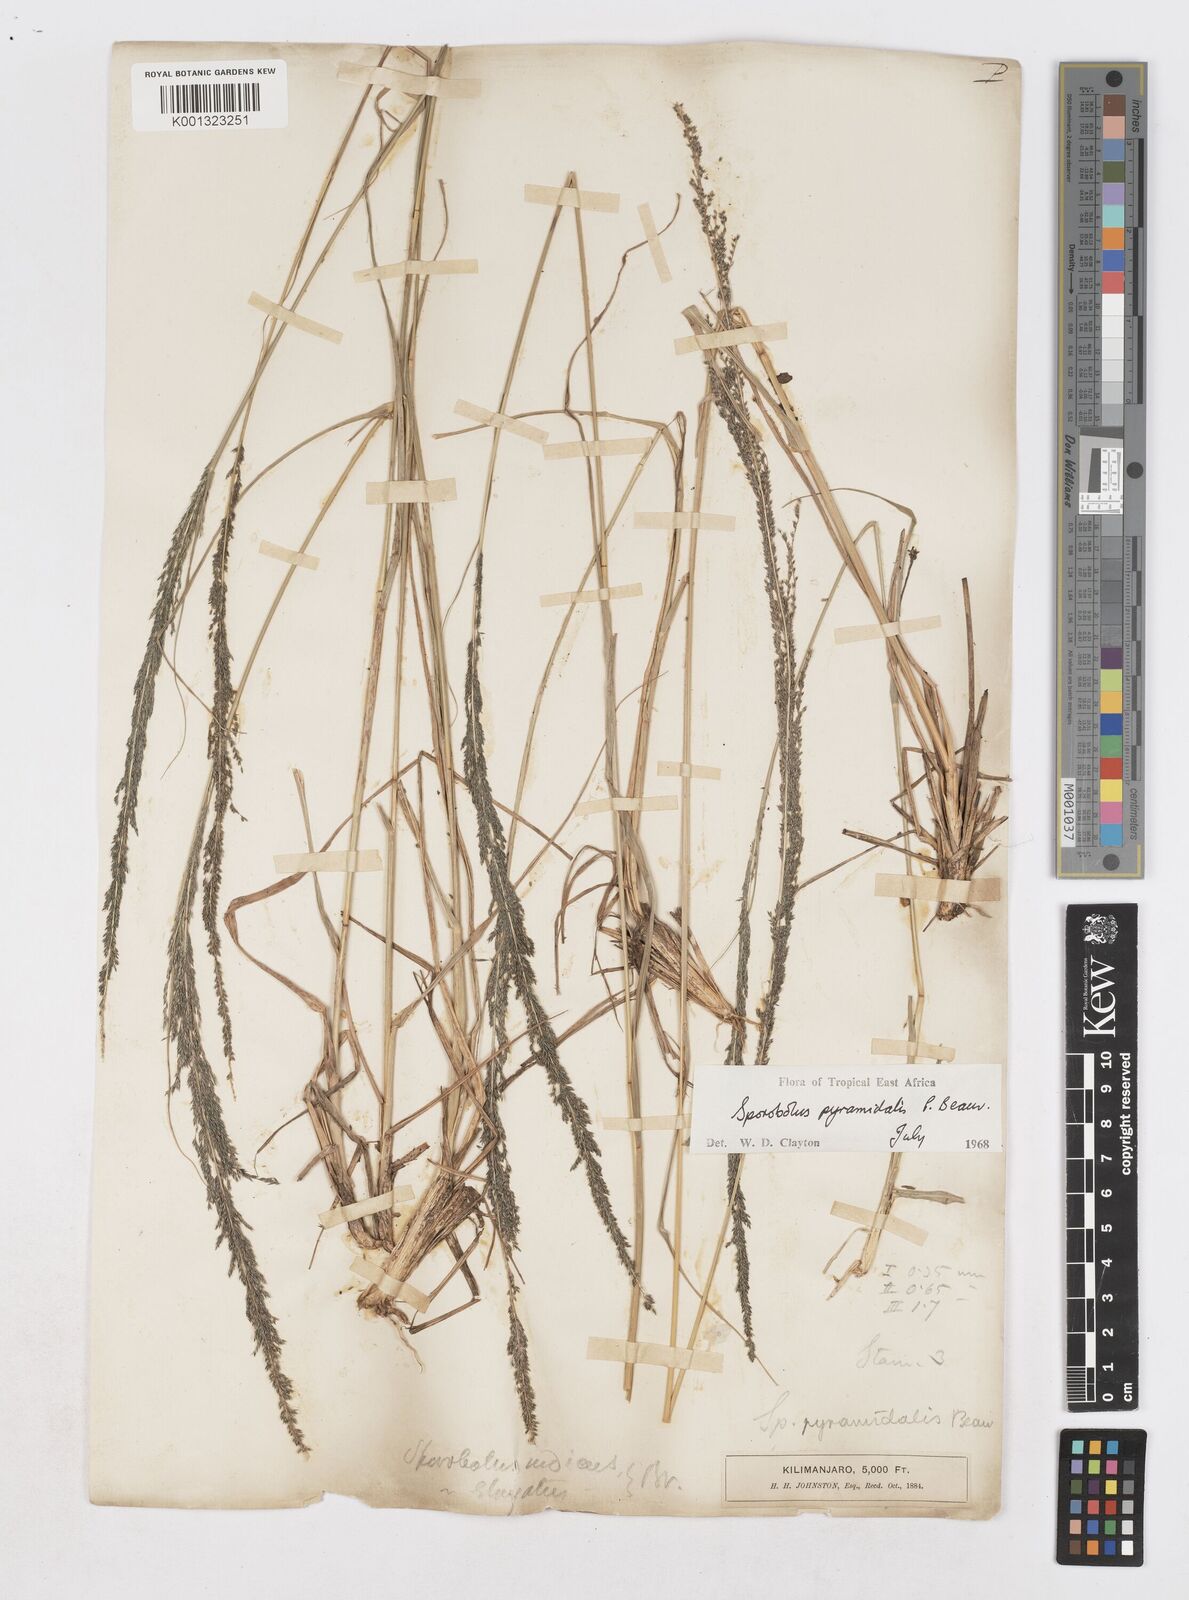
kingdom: Plantae
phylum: Tracheophyta
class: Liliopsida
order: Poales
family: Poaceae
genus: Sporobolus
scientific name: Sporobolus pyramidalis
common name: West indian dropseed
